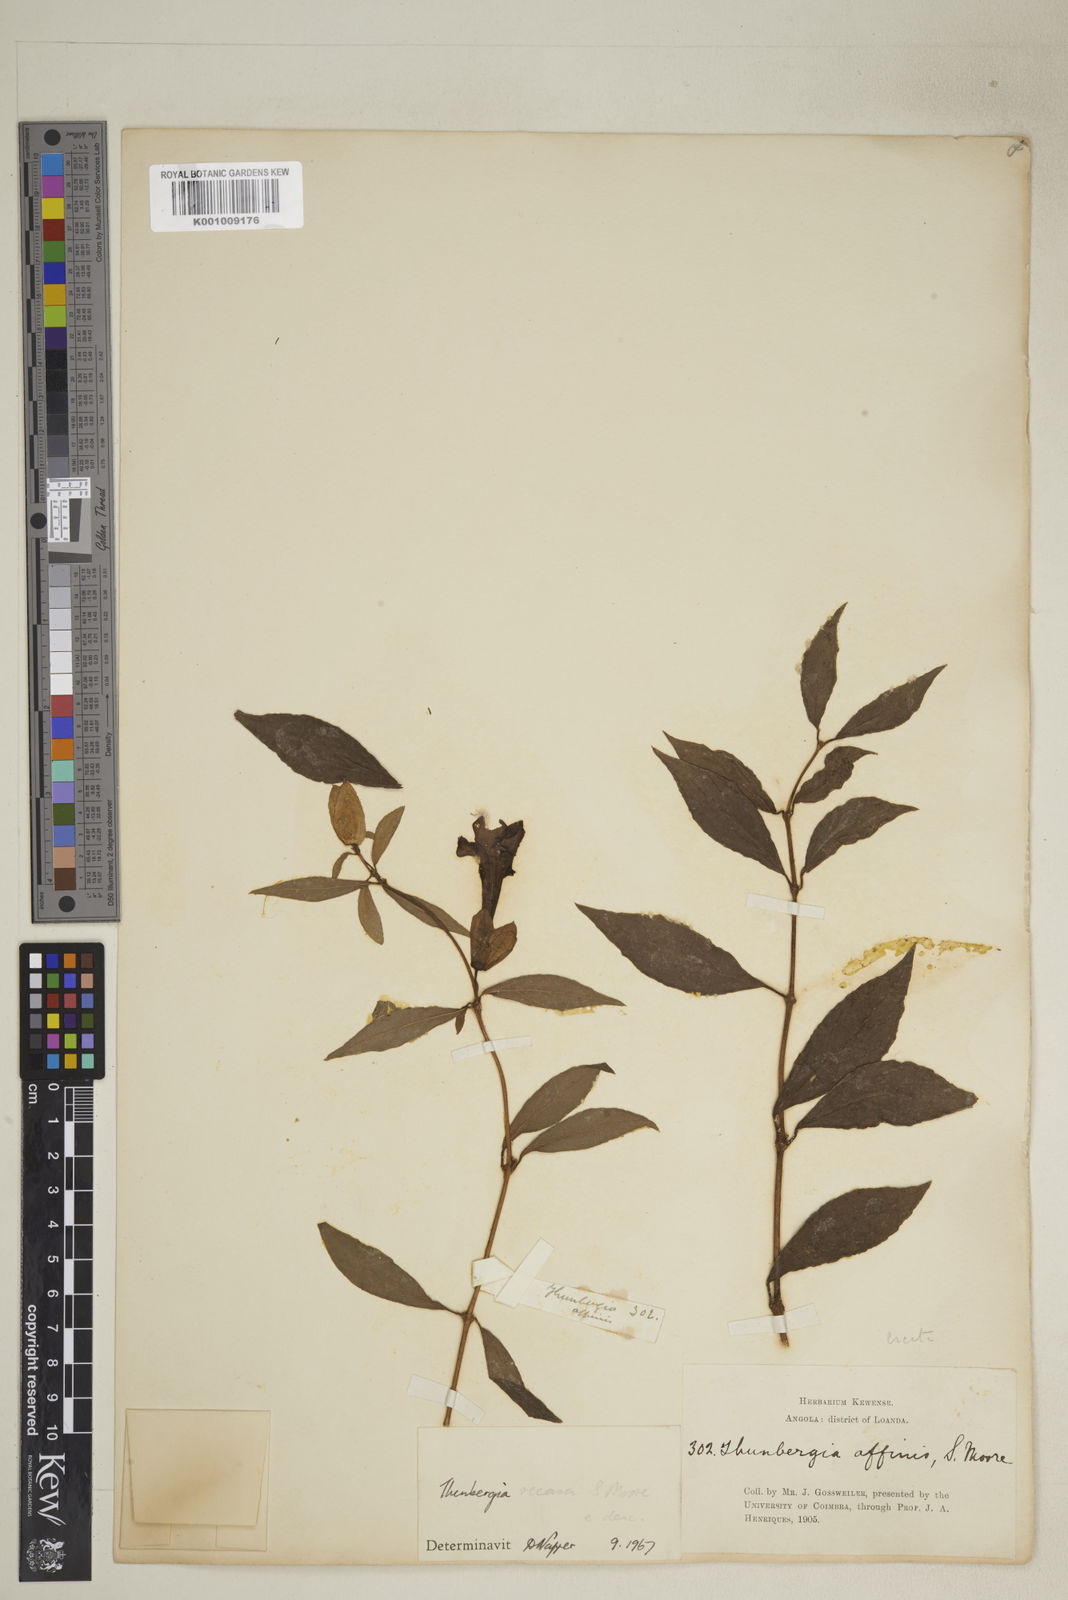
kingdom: Plantae
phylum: Tracheophyta
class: Magnoliopsida
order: Lamiales
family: Acanthaceae
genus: Thunbergia
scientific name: Thunbergia recasa
